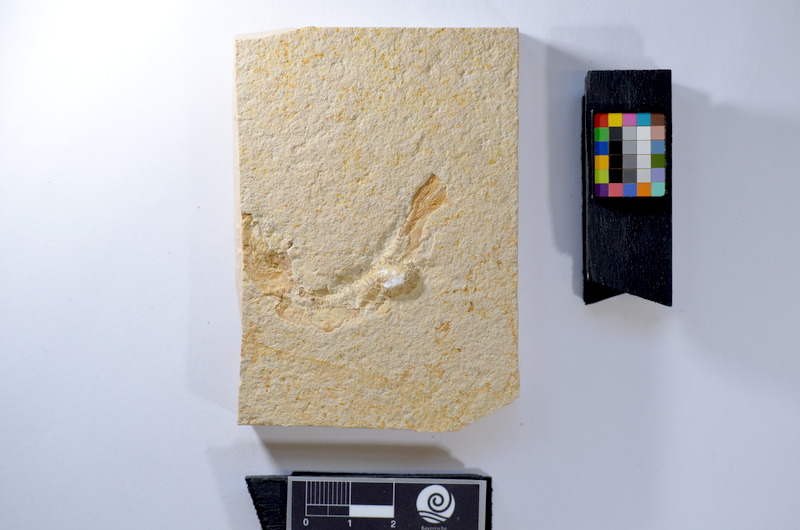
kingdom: Animalia
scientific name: Animalia
